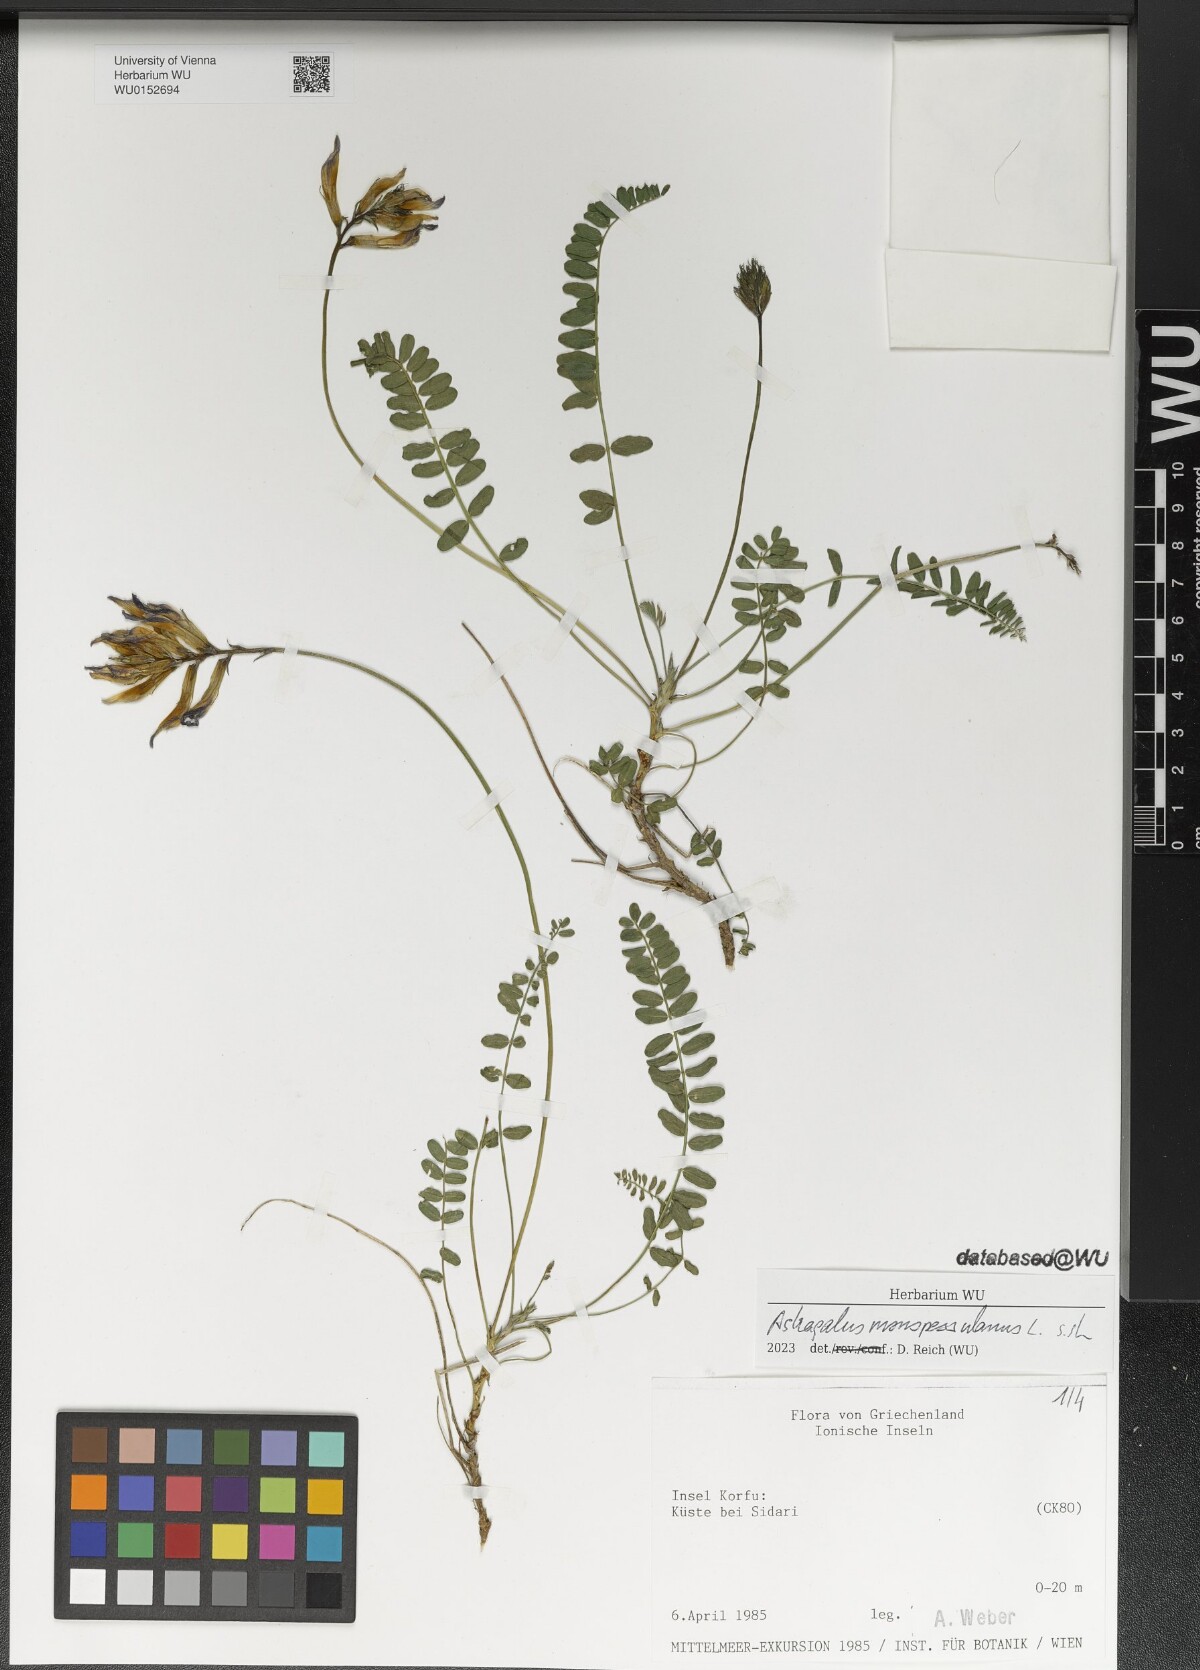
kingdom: Plantae
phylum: Tracheophyta
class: Magnoliopsida
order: Fabales
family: Fabaceae
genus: Astragalus
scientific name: Astragalus monspessulanus
